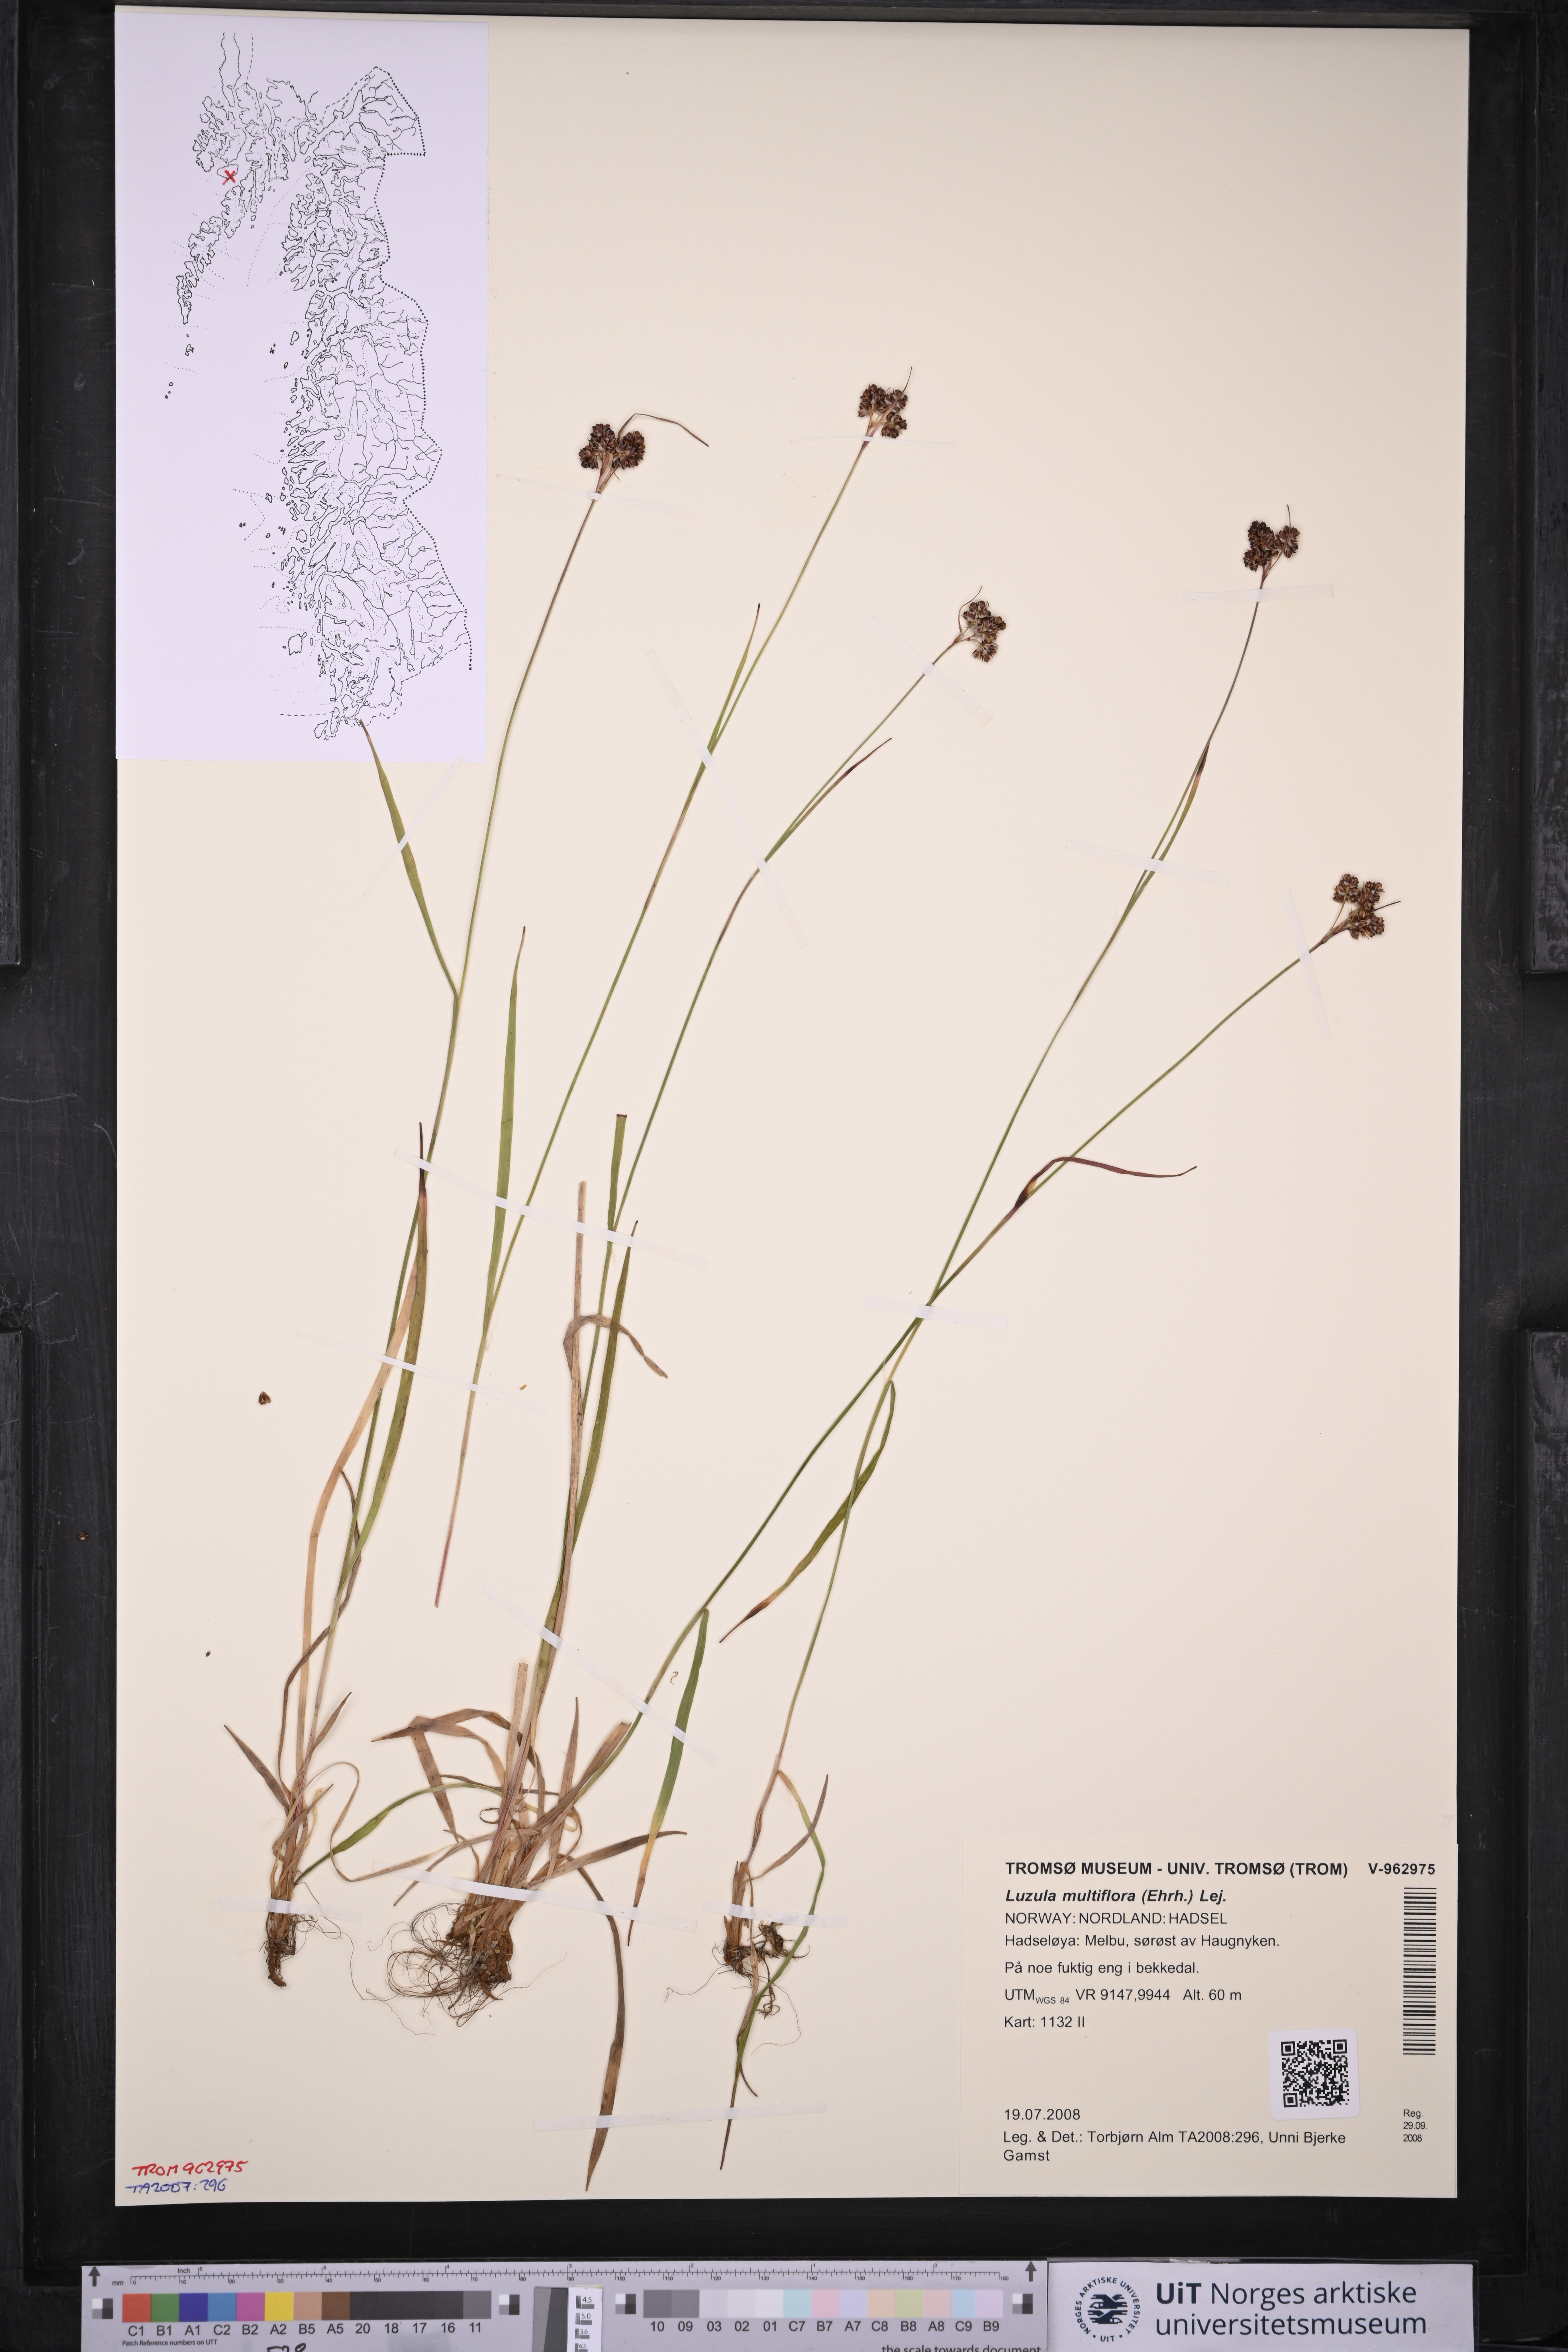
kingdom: Plantae
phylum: Tracheophyta
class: Liliopsida
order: Poales
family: Juncaceae
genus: Luzula
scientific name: Luzula multiflora
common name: Heath wood-rush
